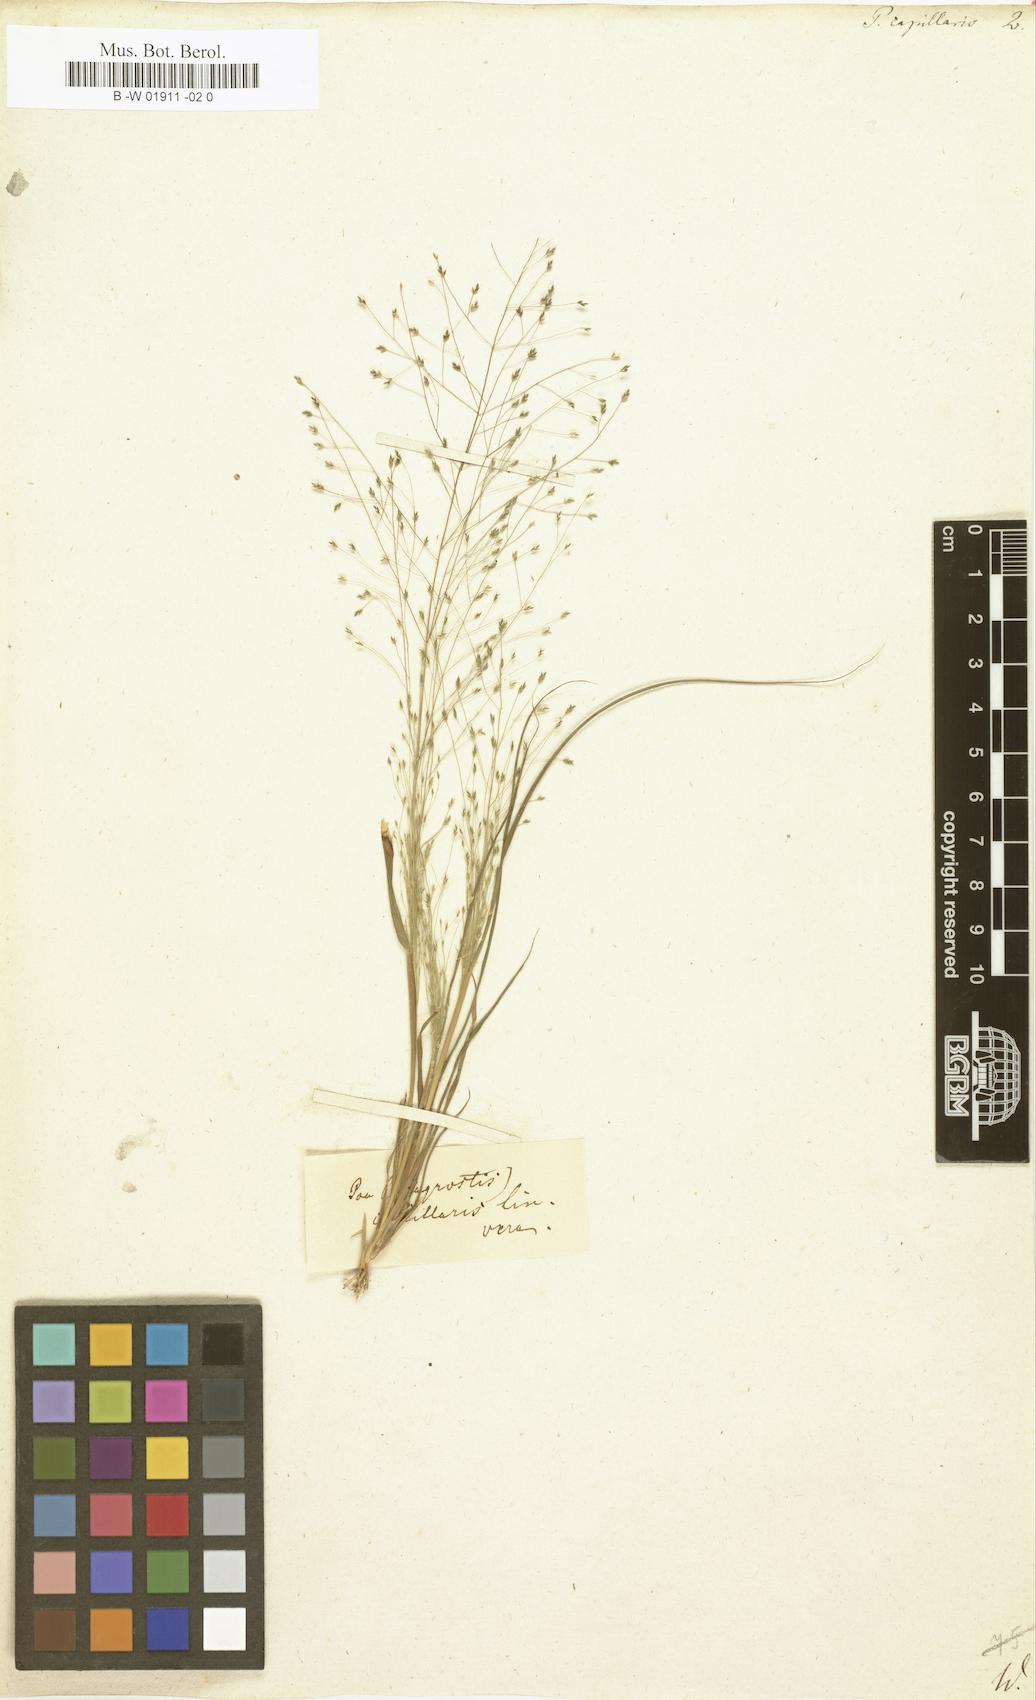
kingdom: Plantae
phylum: Tracheophyta
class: Liliopsida
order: Poales
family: Poaceae
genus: Poa
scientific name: Poa capillaris
